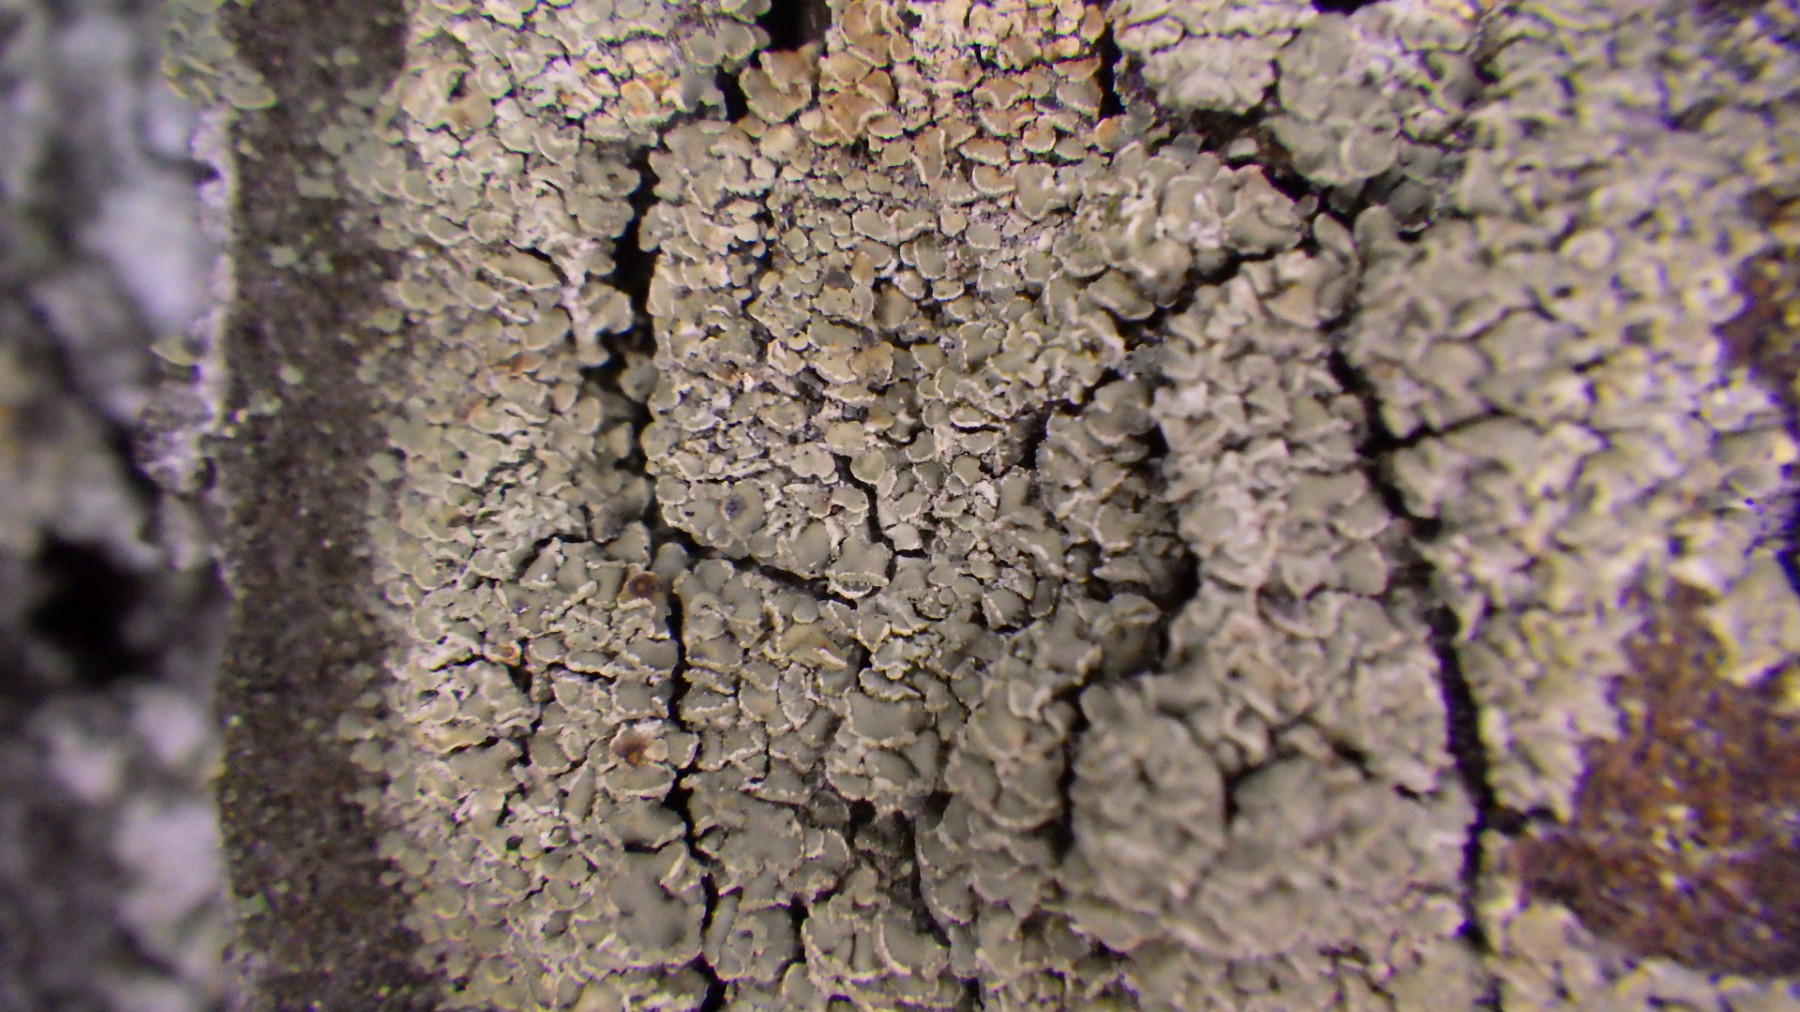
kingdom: Fungi
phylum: Ascomycota
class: Lecanoromycetes
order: Umbilicariales
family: Ophioparmaceae
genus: Hypocenomyce
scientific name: Hypocenomyce scalaris
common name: småskællet muslinglav
